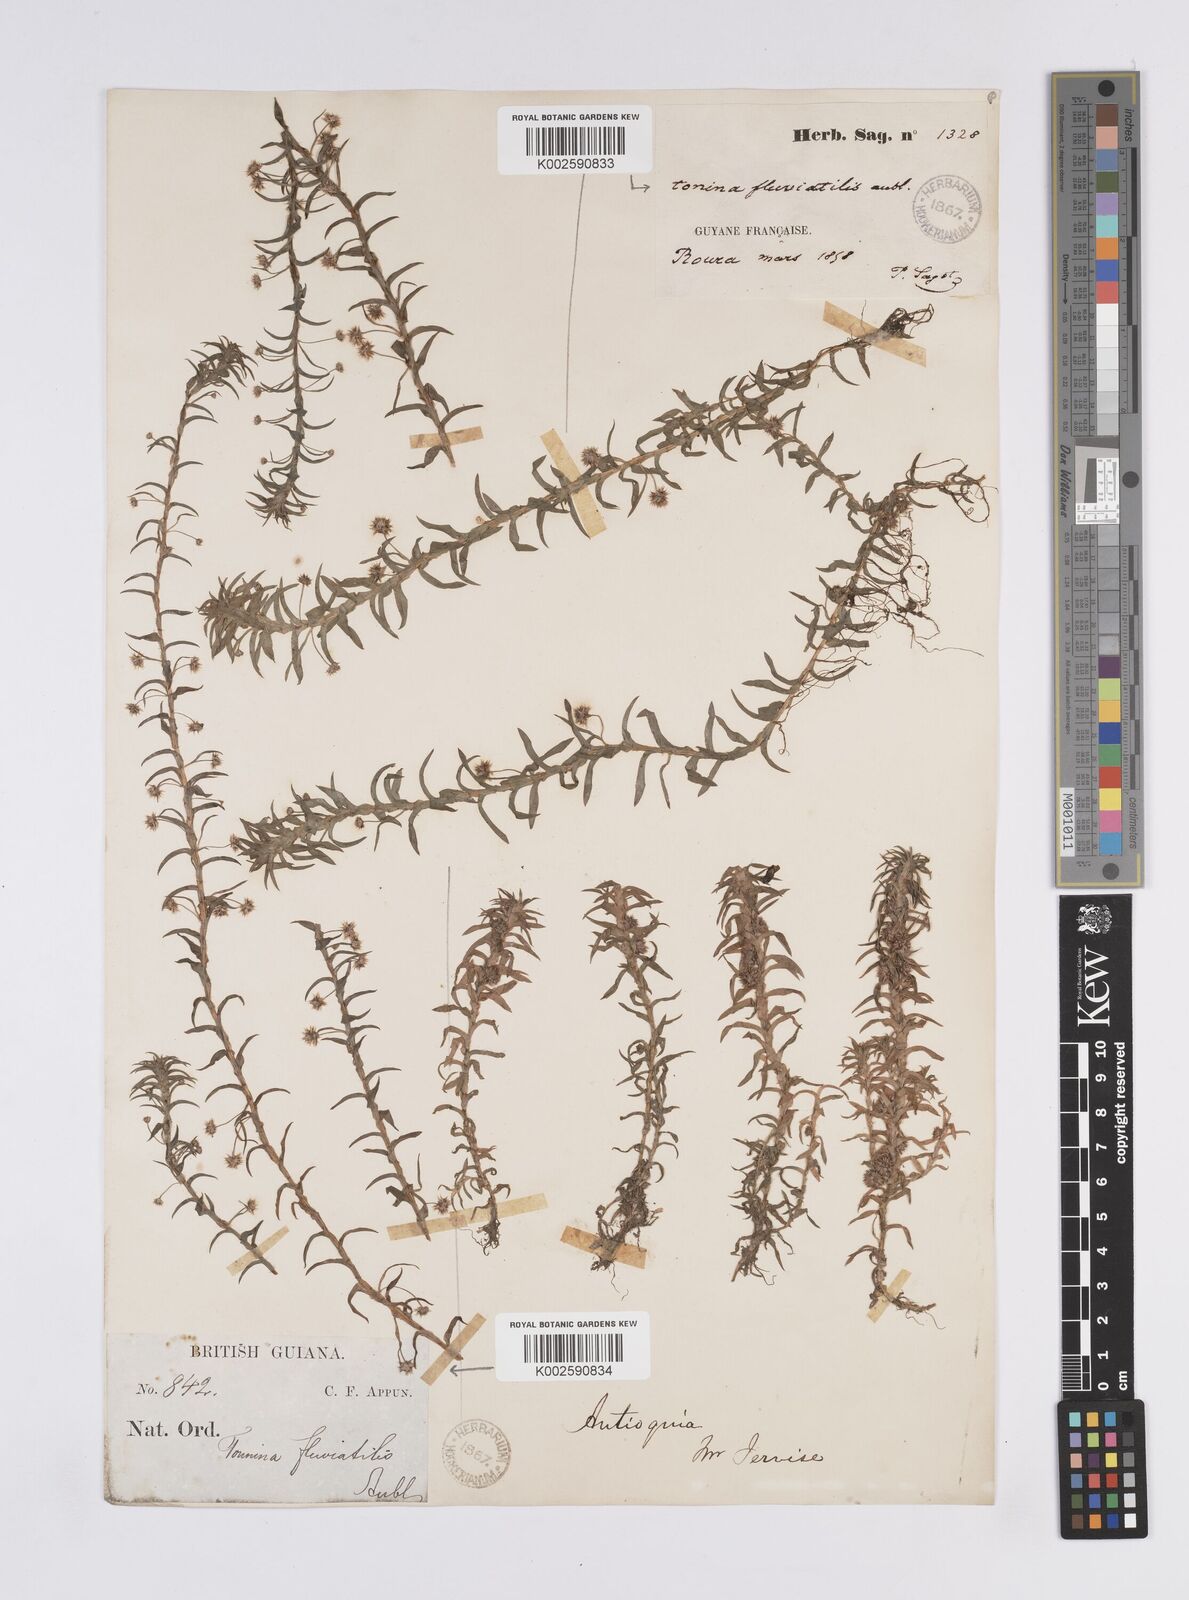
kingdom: Plantae
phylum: Tracheophyta
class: Liliopsida
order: Poales
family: Eriocaulaceae
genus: Paepalanthus
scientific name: Paepalanthus fluviatilis
